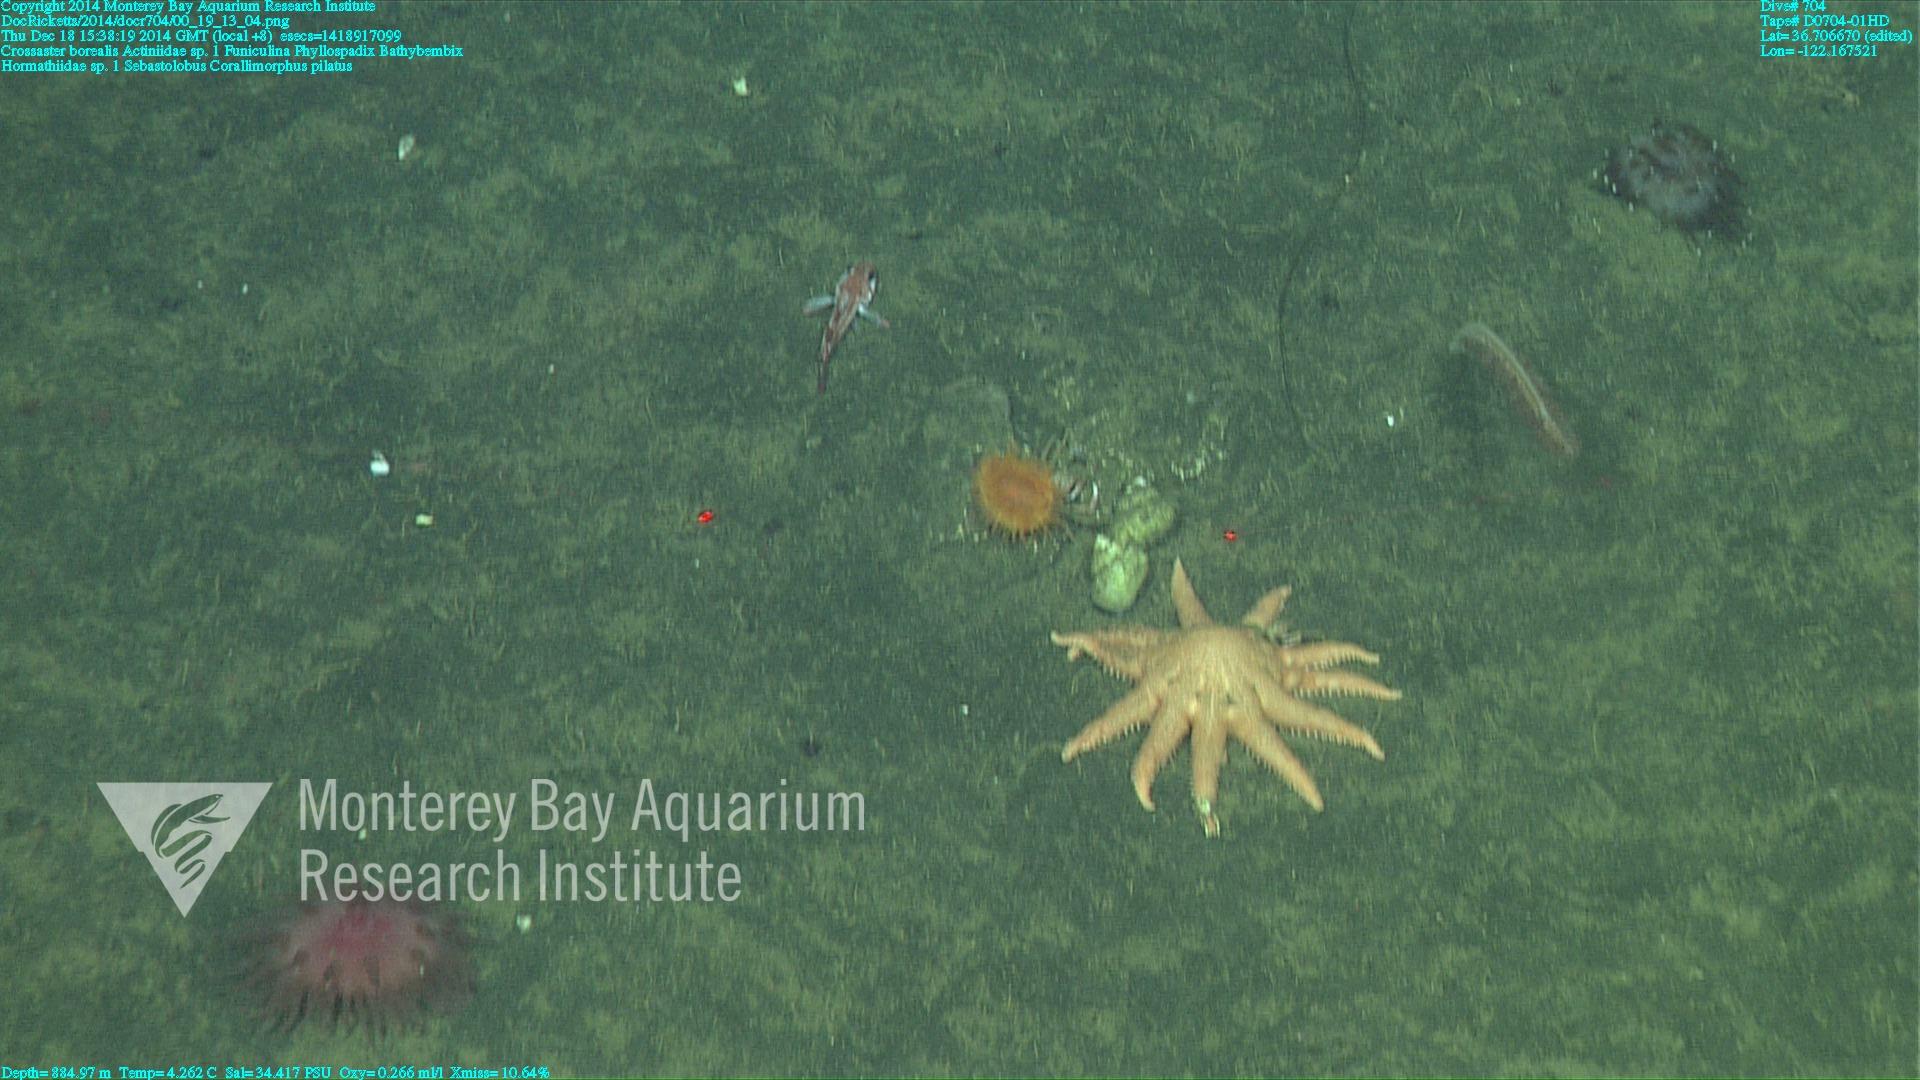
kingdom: Animalia
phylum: Cnidaria
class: Anthozoa
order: Scleralcyonacea
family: Funiculinidae
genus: Funiculina
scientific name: Funiculina
